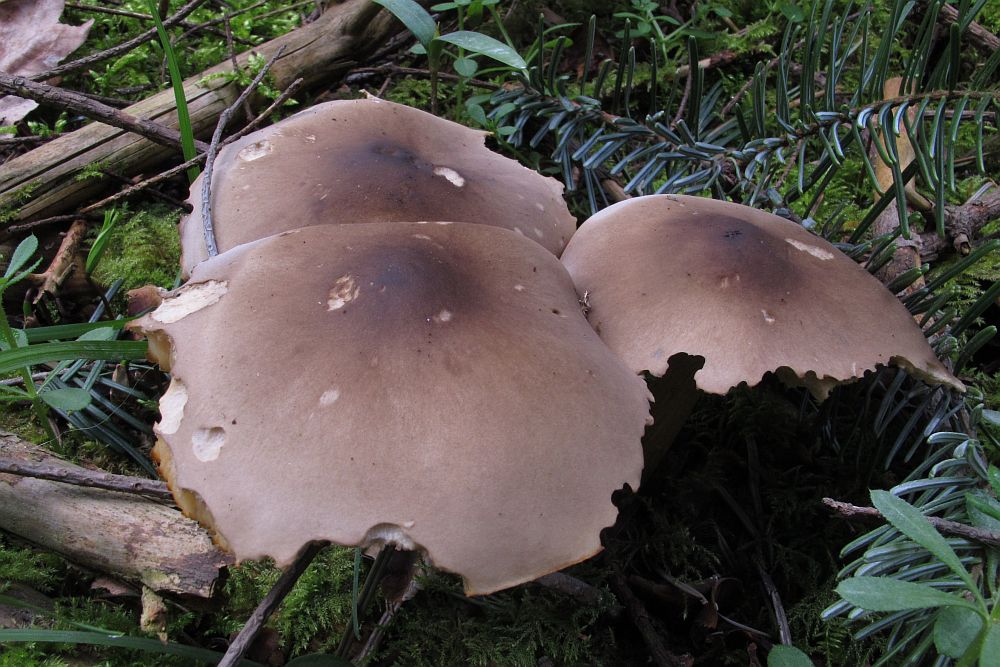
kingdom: Fungi
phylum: Basidiomycota
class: Agaricomycetes
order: Agaricales
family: Tricholomataceae
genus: Melanoleuca
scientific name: Melanoleuca cognata
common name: gyldengrå munkehat
